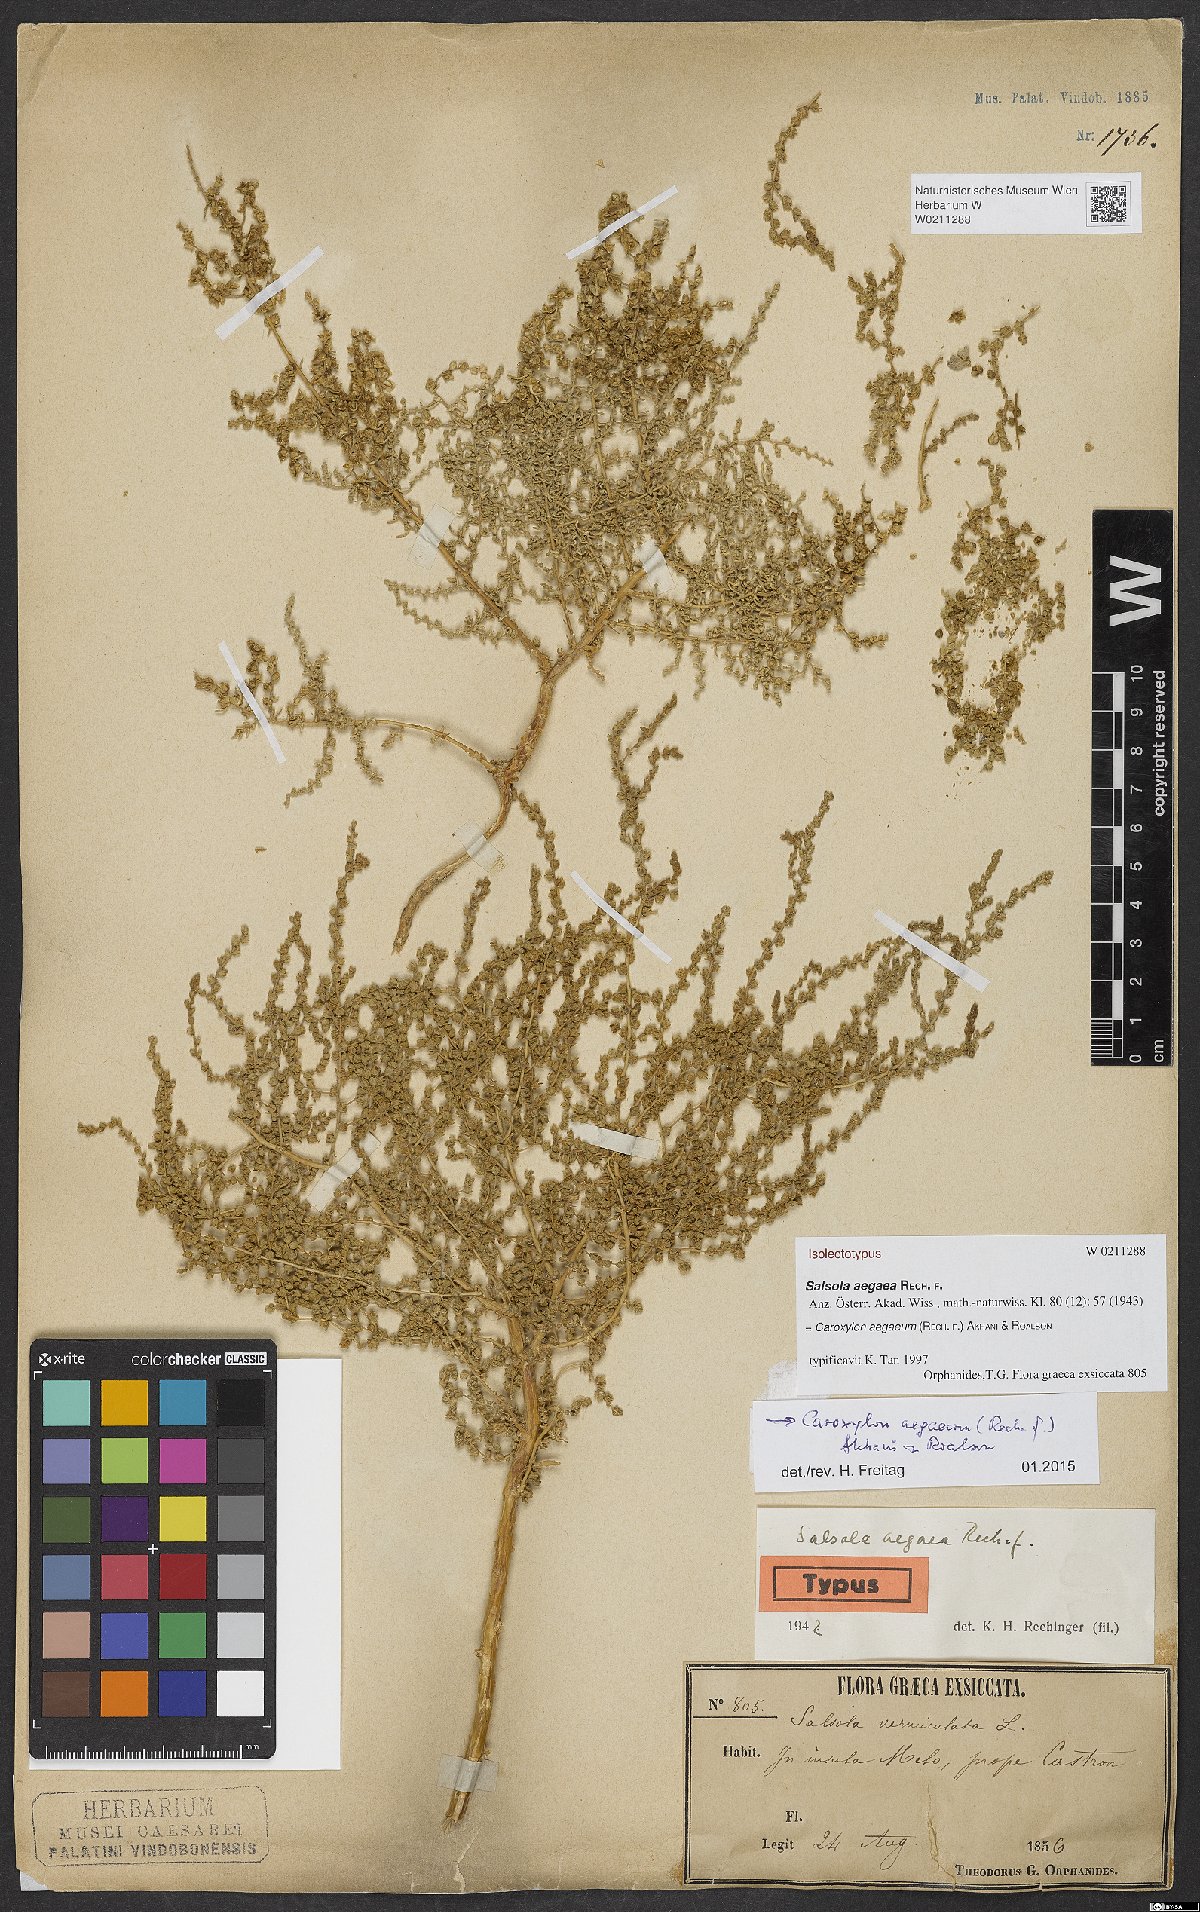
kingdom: Plantae
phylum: Tracheophyta
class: Magnoliopsida
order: Caryophyllales
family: Amaranthaceae
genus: Nitrosalsola
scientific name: Nitrosalsola aegaea
